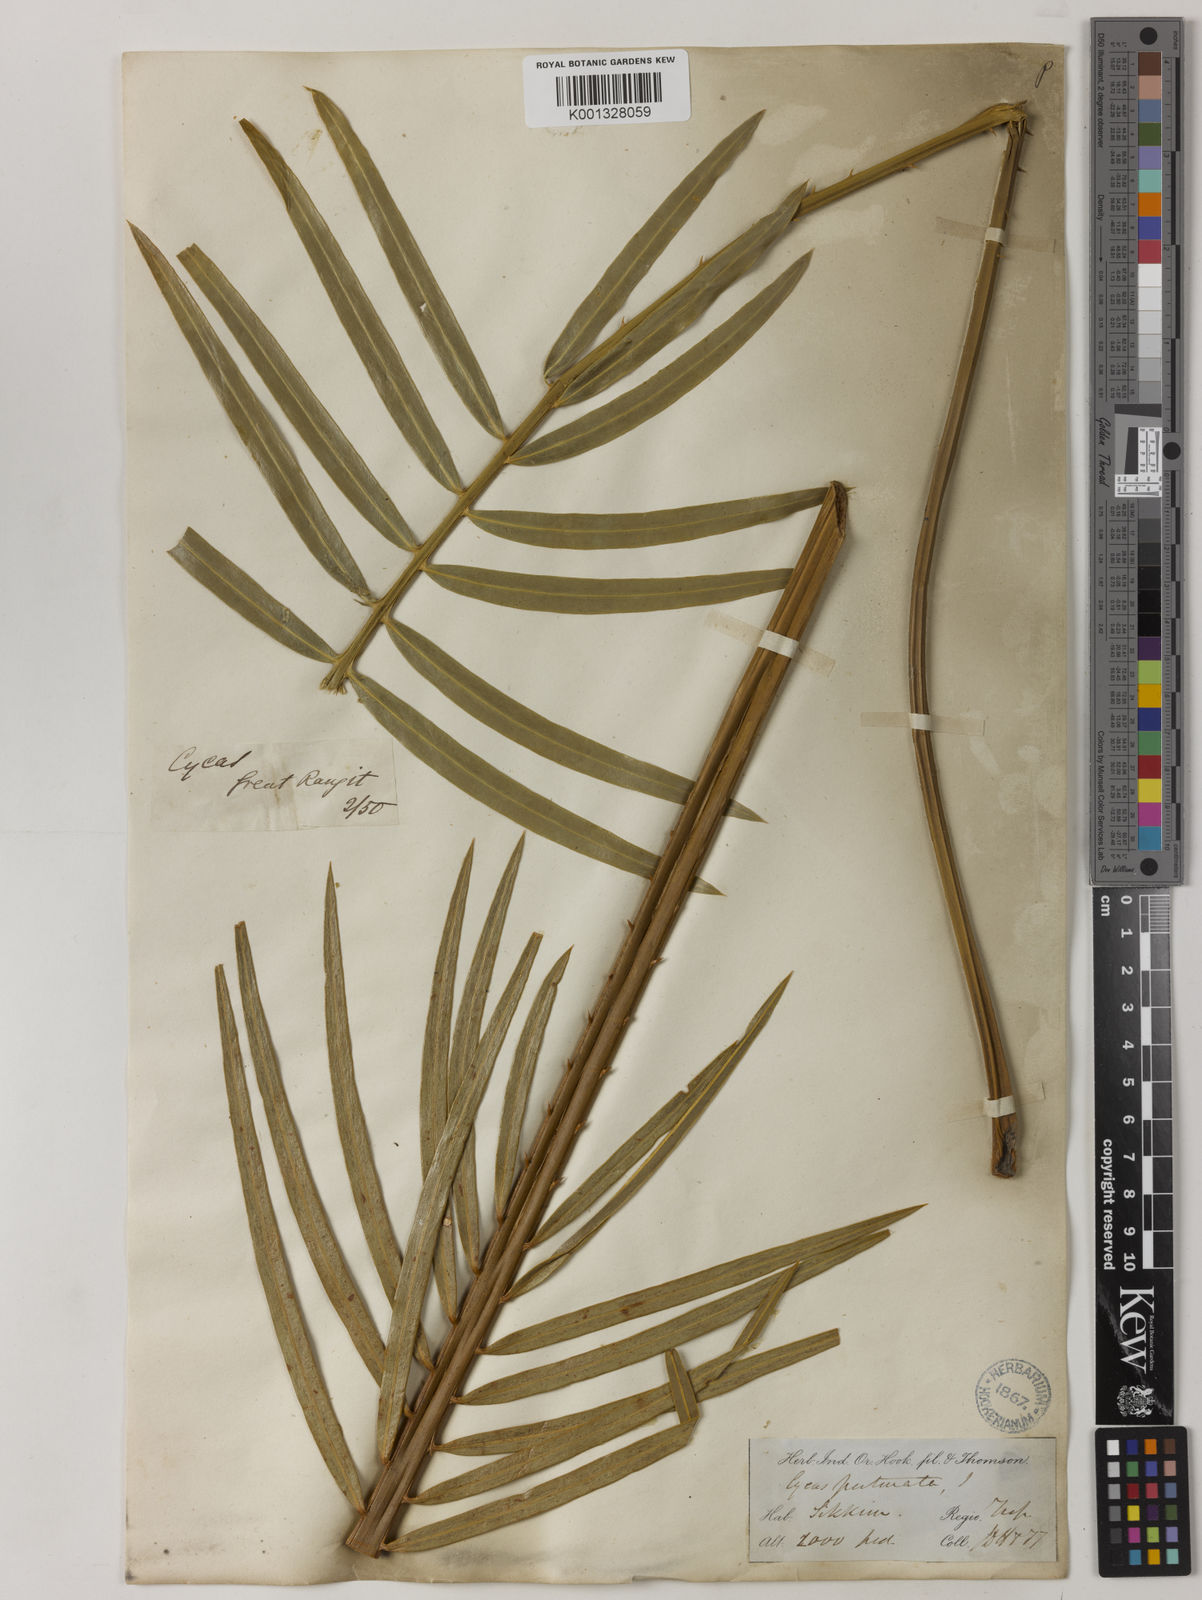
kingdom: Plantae
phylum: Tracheophyta
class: Cycadopsida
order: Cycadales
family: Cycadaceae
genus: Cycas
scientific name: Cycas pectinata
